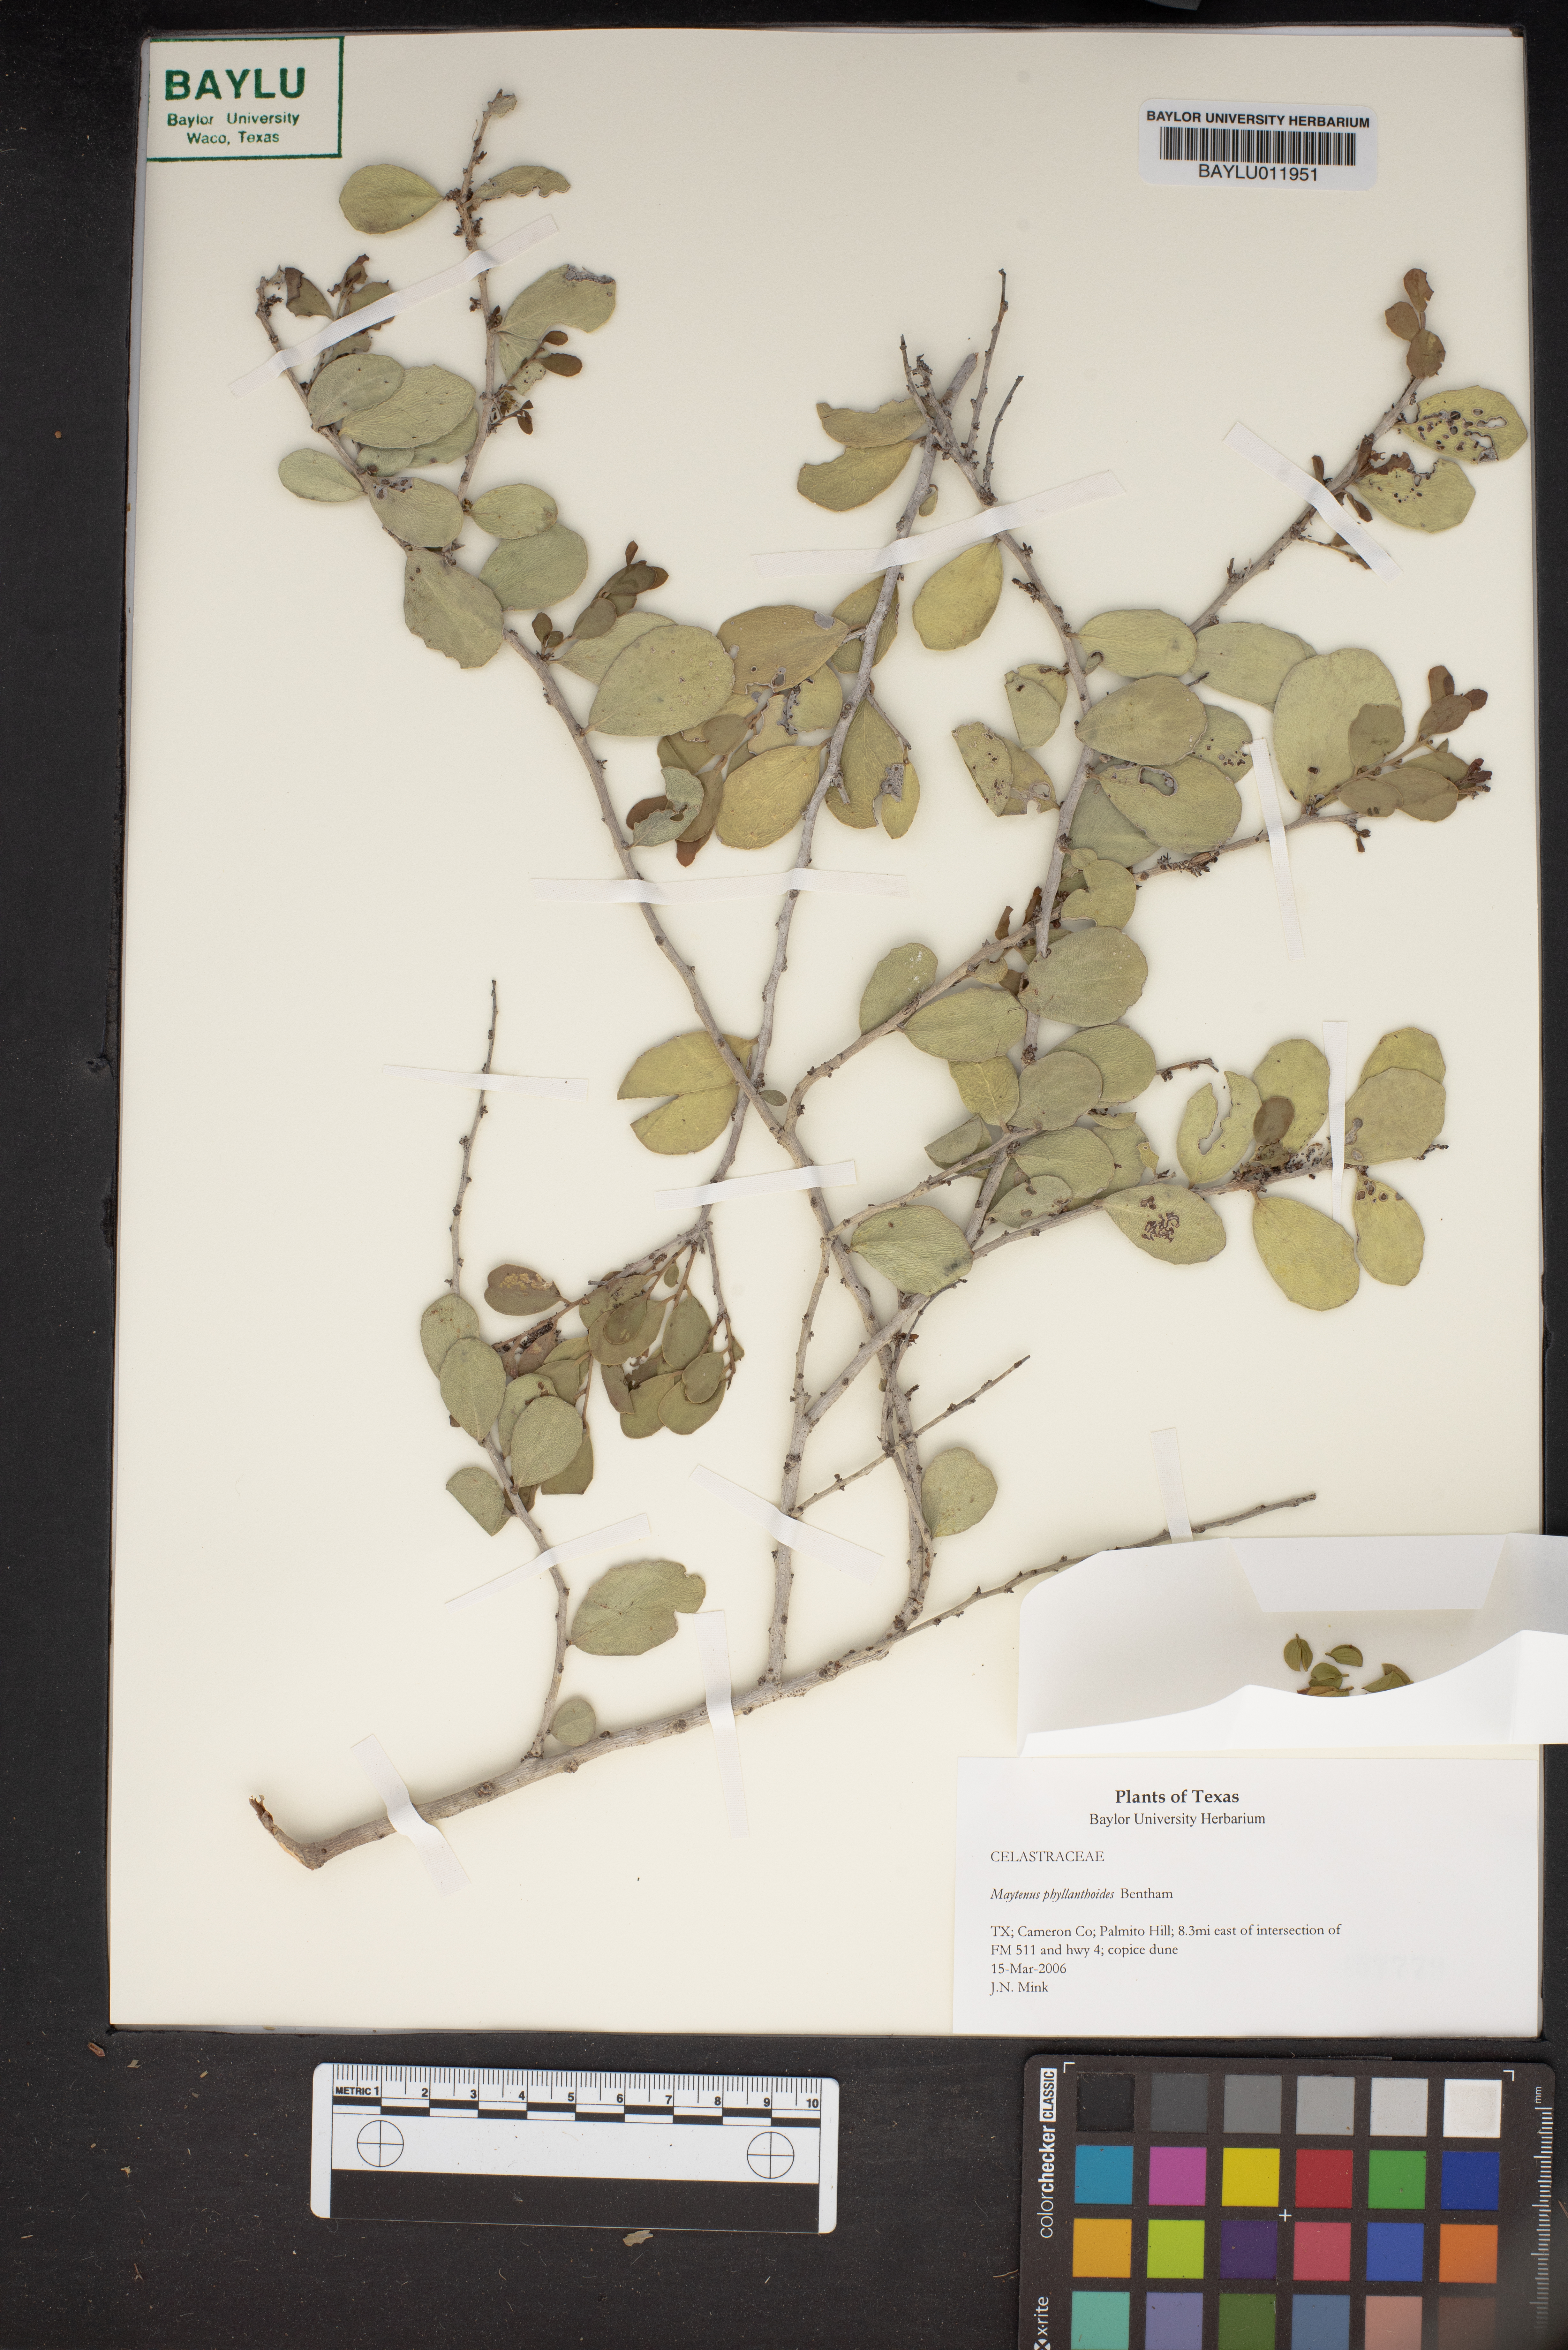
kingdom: Plantae
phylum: Tracheophyta
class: Magnoliopsida
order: Celastrales
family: Celastraceae
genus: Tricerma
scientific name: Tricerma phyllanthoides
